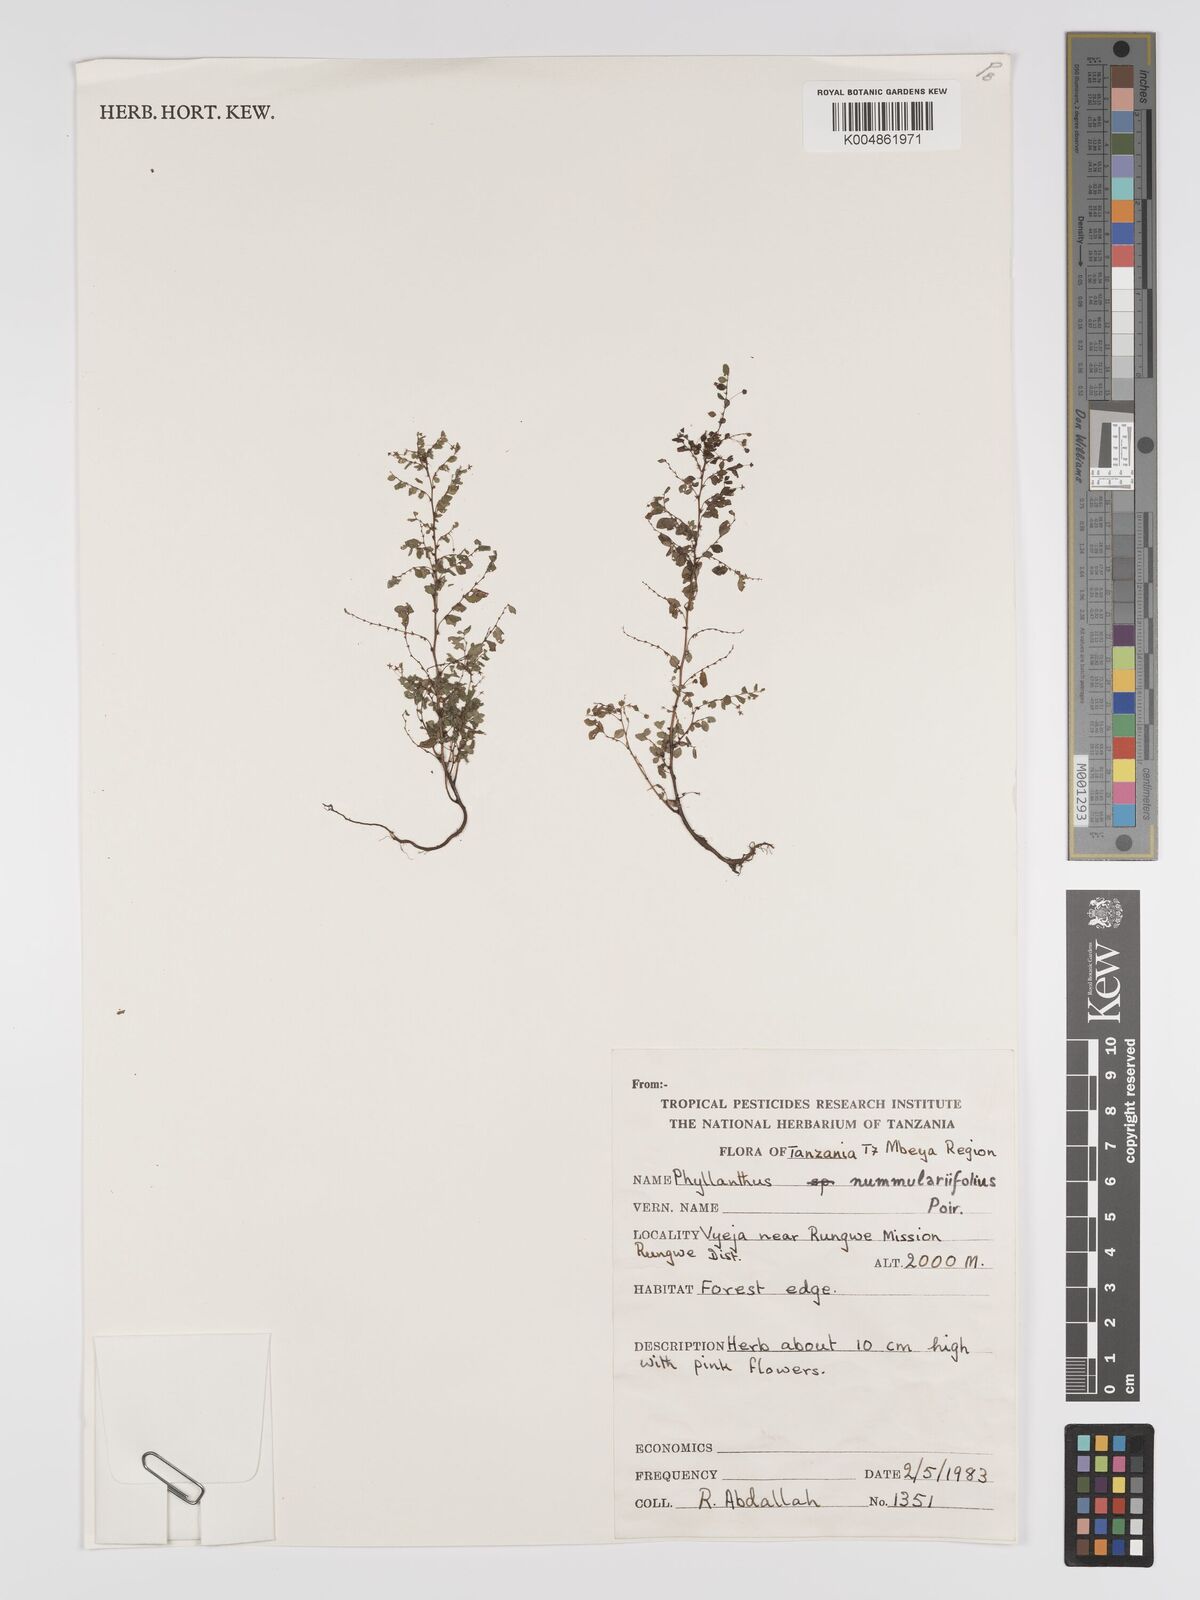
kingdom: Plantae
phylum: Tracheophyta
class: Magnoliopsida
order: Malpighiales
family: Phyllanthaceae
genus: Phyllanthus
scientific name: Phyllanthus nummulariifolius
